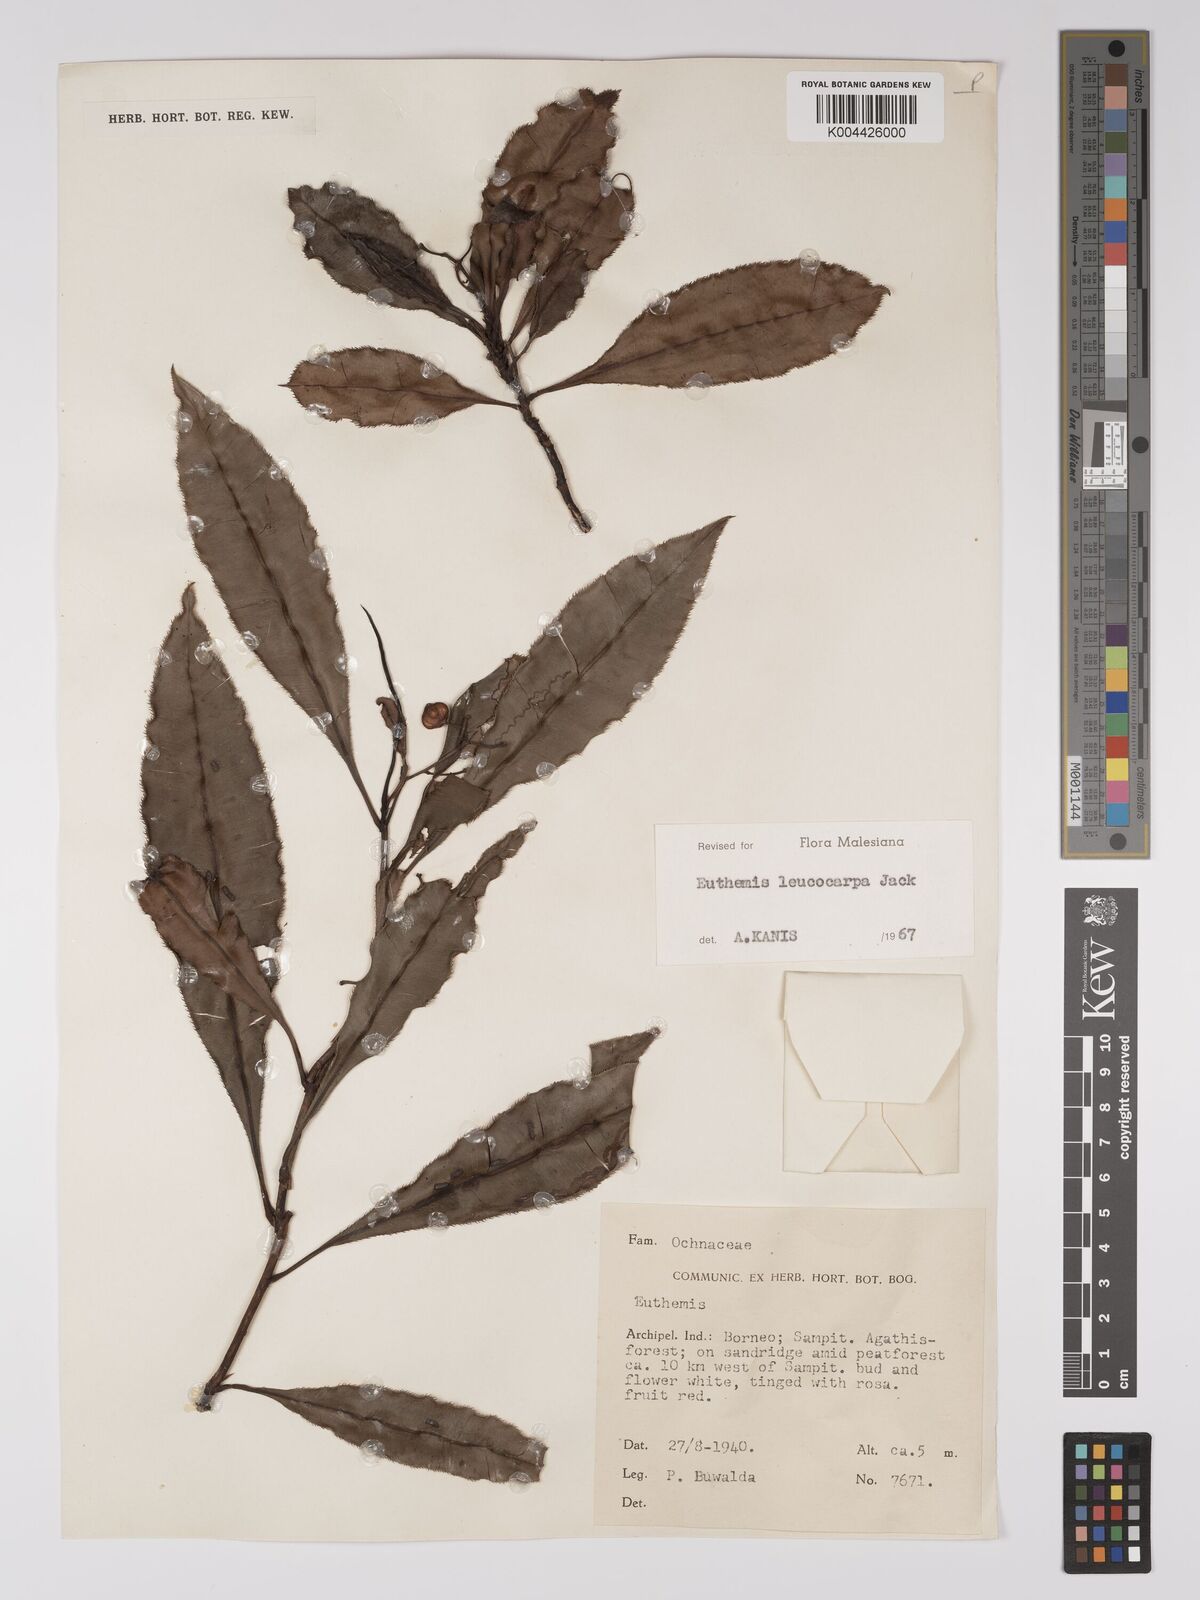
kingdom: Plantae
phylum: Tracheophyta
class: Magnoliopsida
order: Malpighiales
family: Ochnaceae
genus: Euthemis
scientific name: Euthemis leucocarpa
